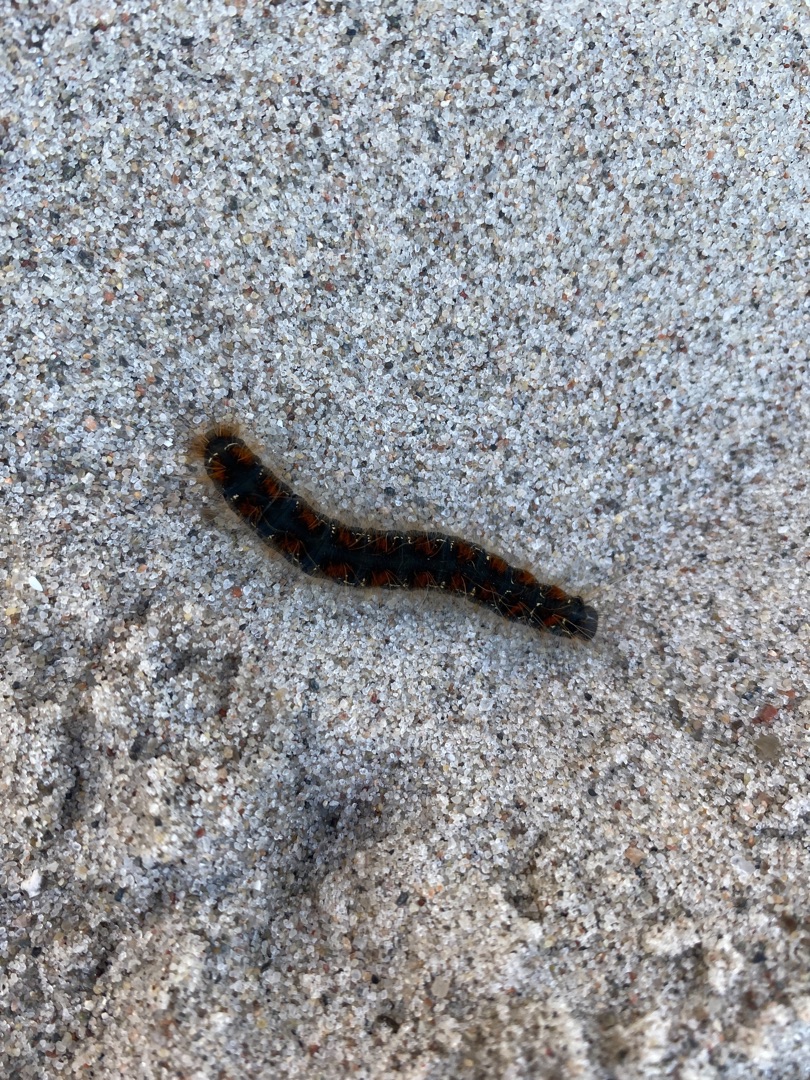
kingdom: Animalia
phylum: Arthropoda
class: Insecta
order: Lepidoptera
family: Lasiocampidae
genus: Eriogaster
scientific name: Eriogaster lanestris
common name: Uldhale
